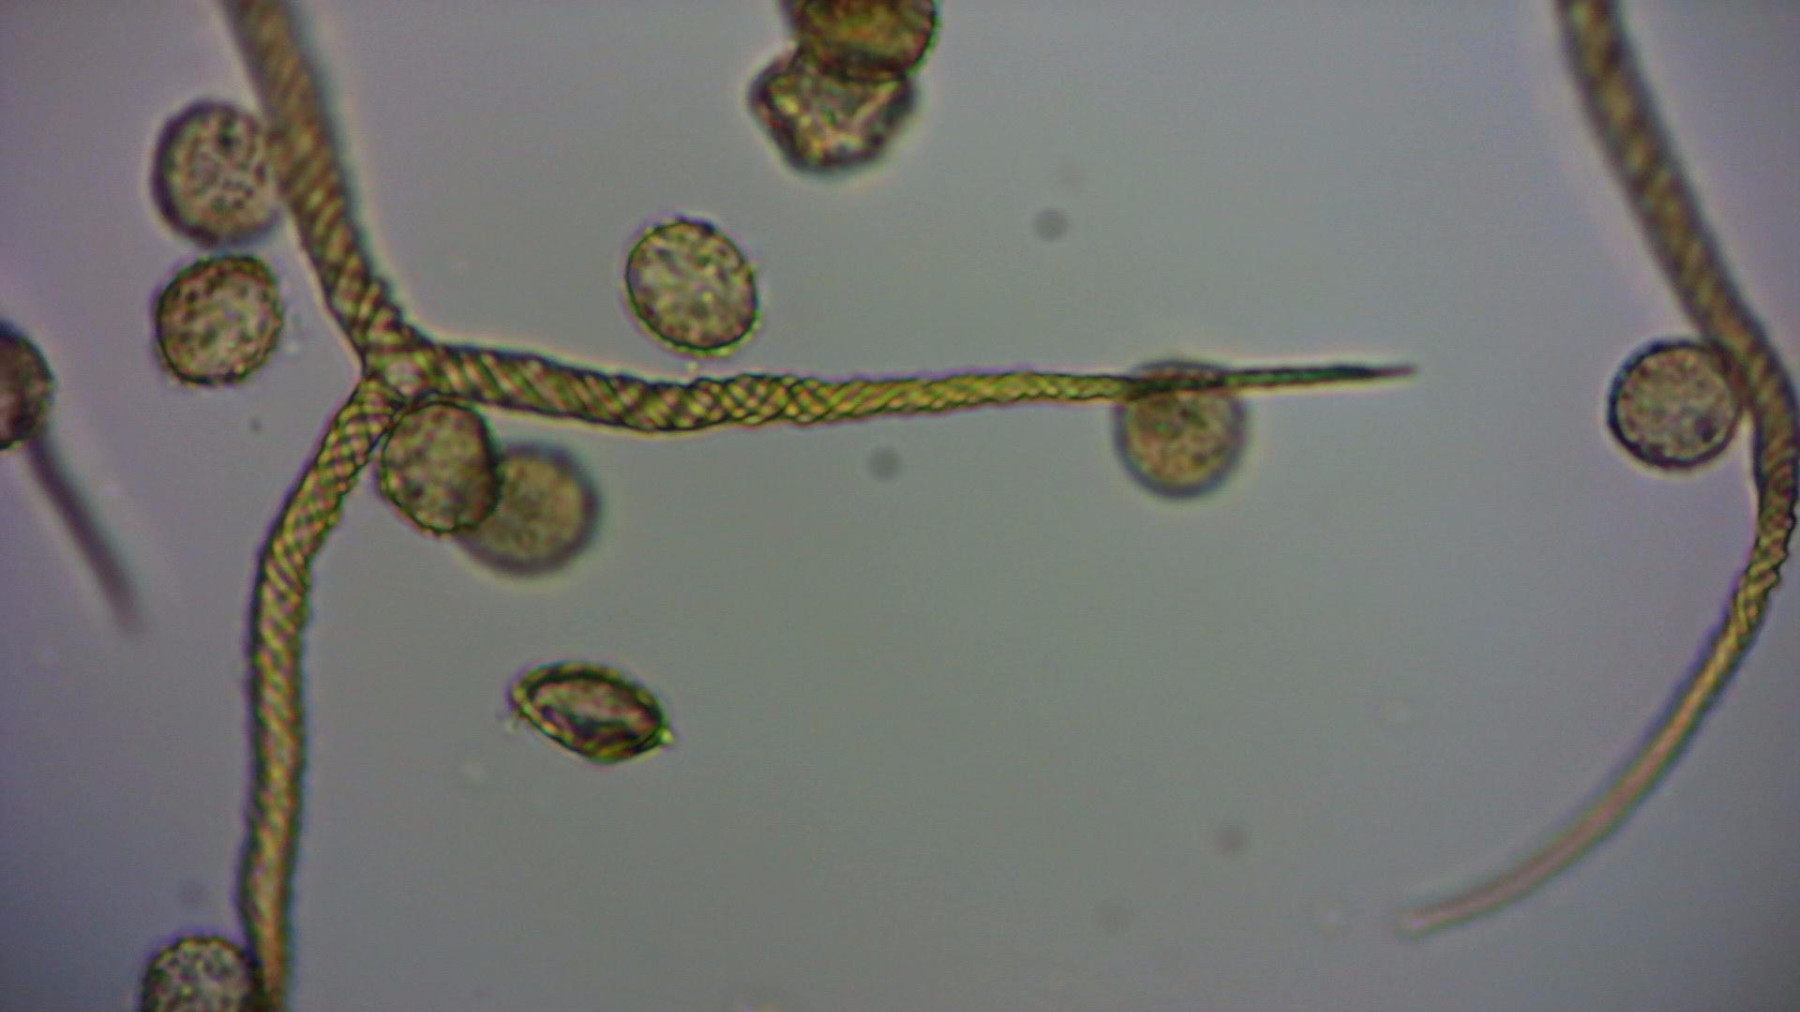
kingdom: Protozoa
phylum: Mycetozoa
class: Myxomycetes
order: Trichiales
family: Trichiaceae
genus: Trichia
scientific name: Trichia crateriformis
